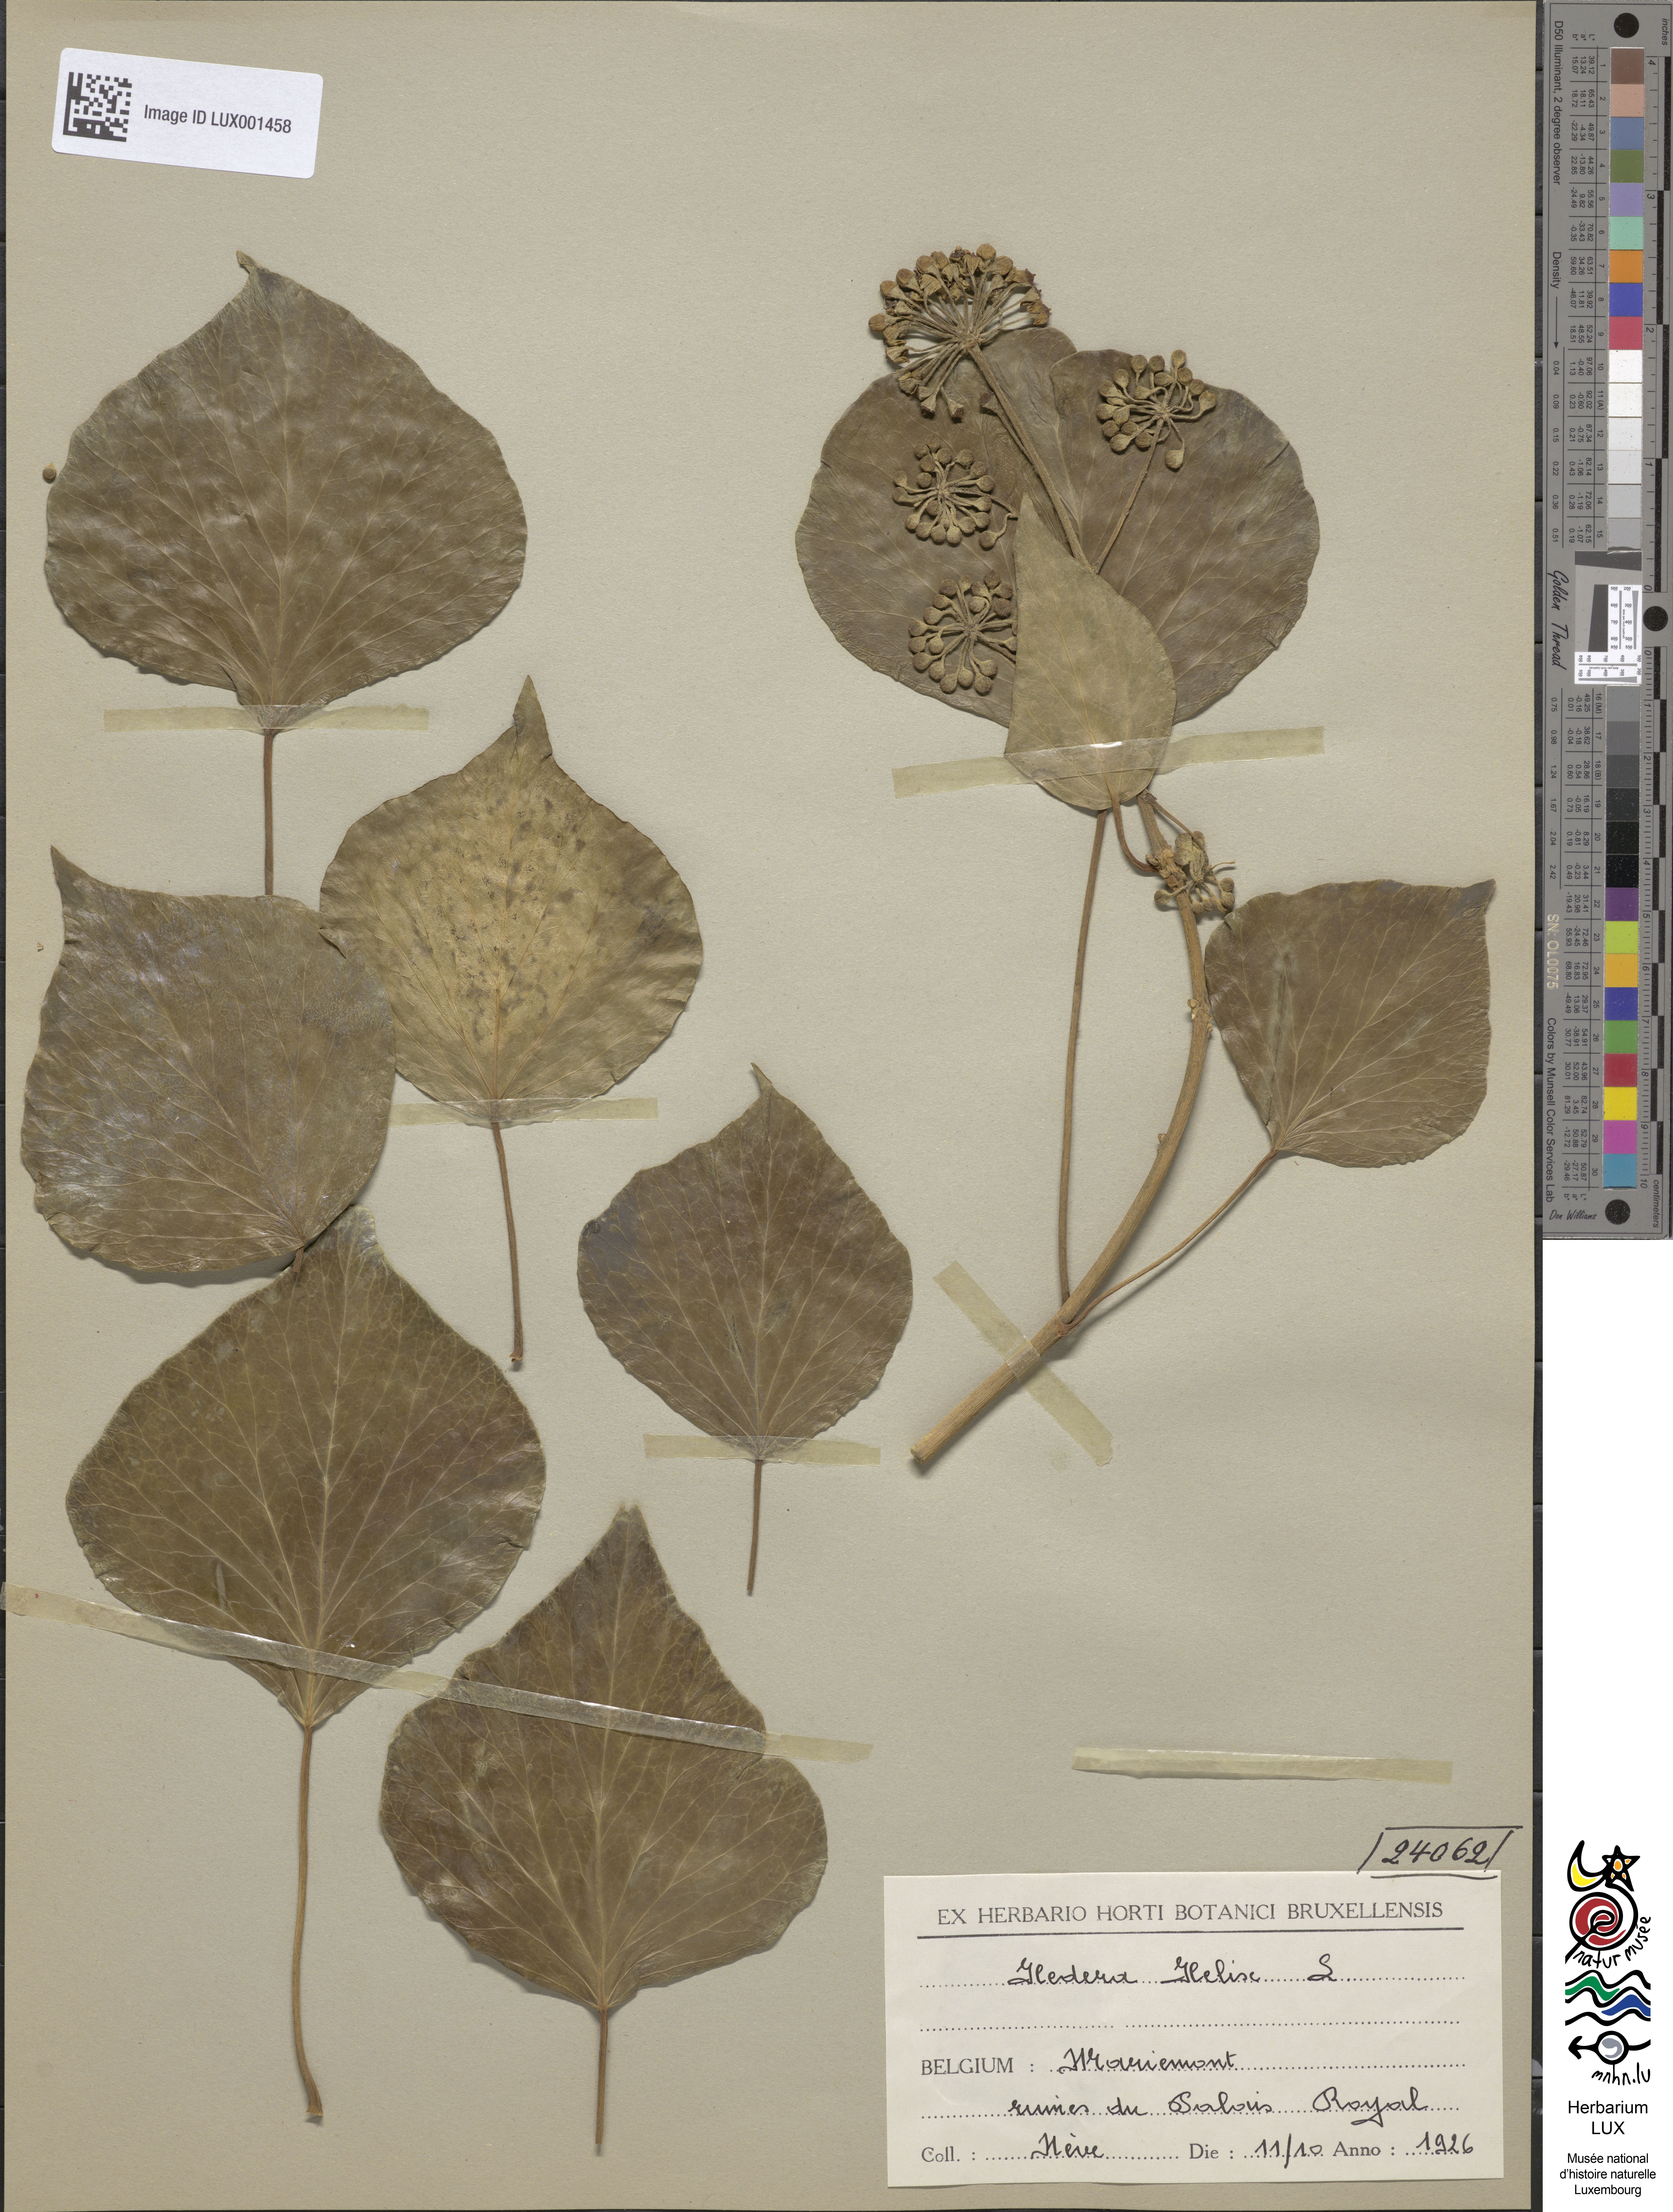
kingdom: Plantae
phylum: Tracheophyta
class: Magnoliopsida
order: Apiales
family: Araliaceae
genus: Hedera
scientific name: Hedera helix
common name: Ivy
